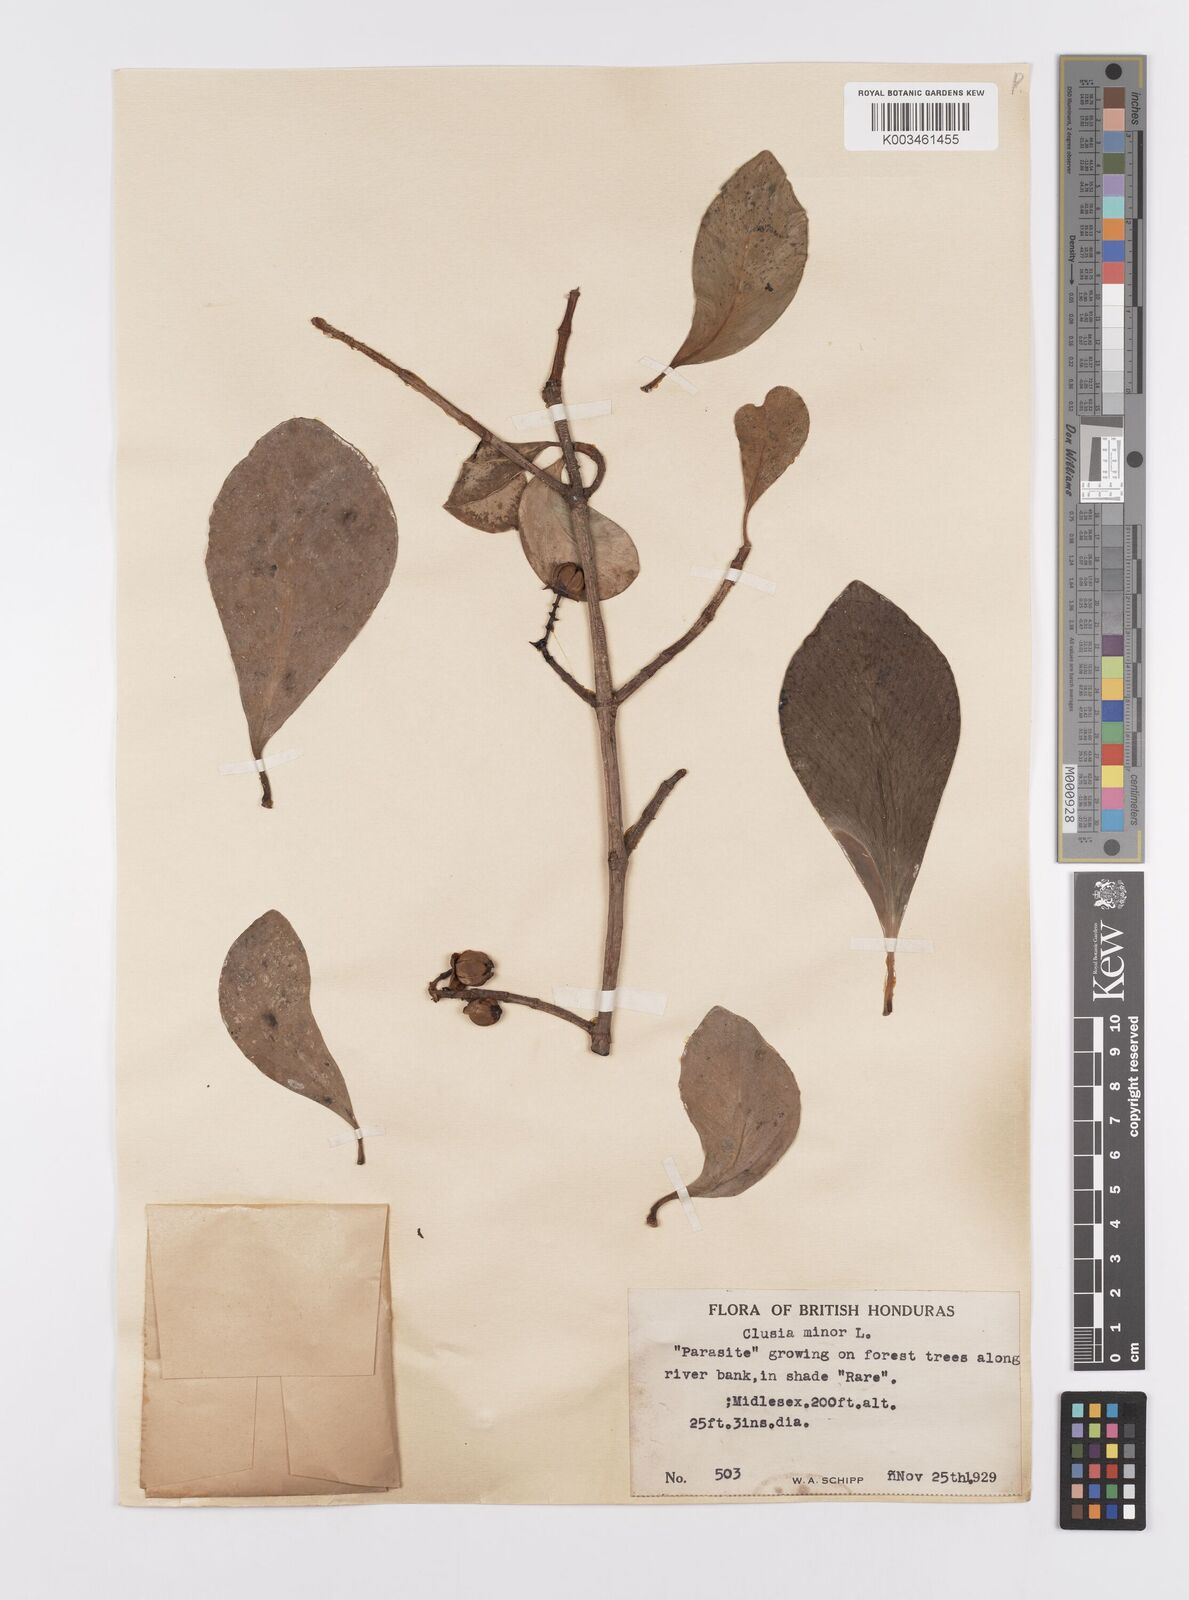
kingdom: Plantae
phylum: Tracheophyta
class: Magnoliopsida
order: Malpighiales
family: Clusiaceae
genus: Clusia
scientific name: Clusia minor
